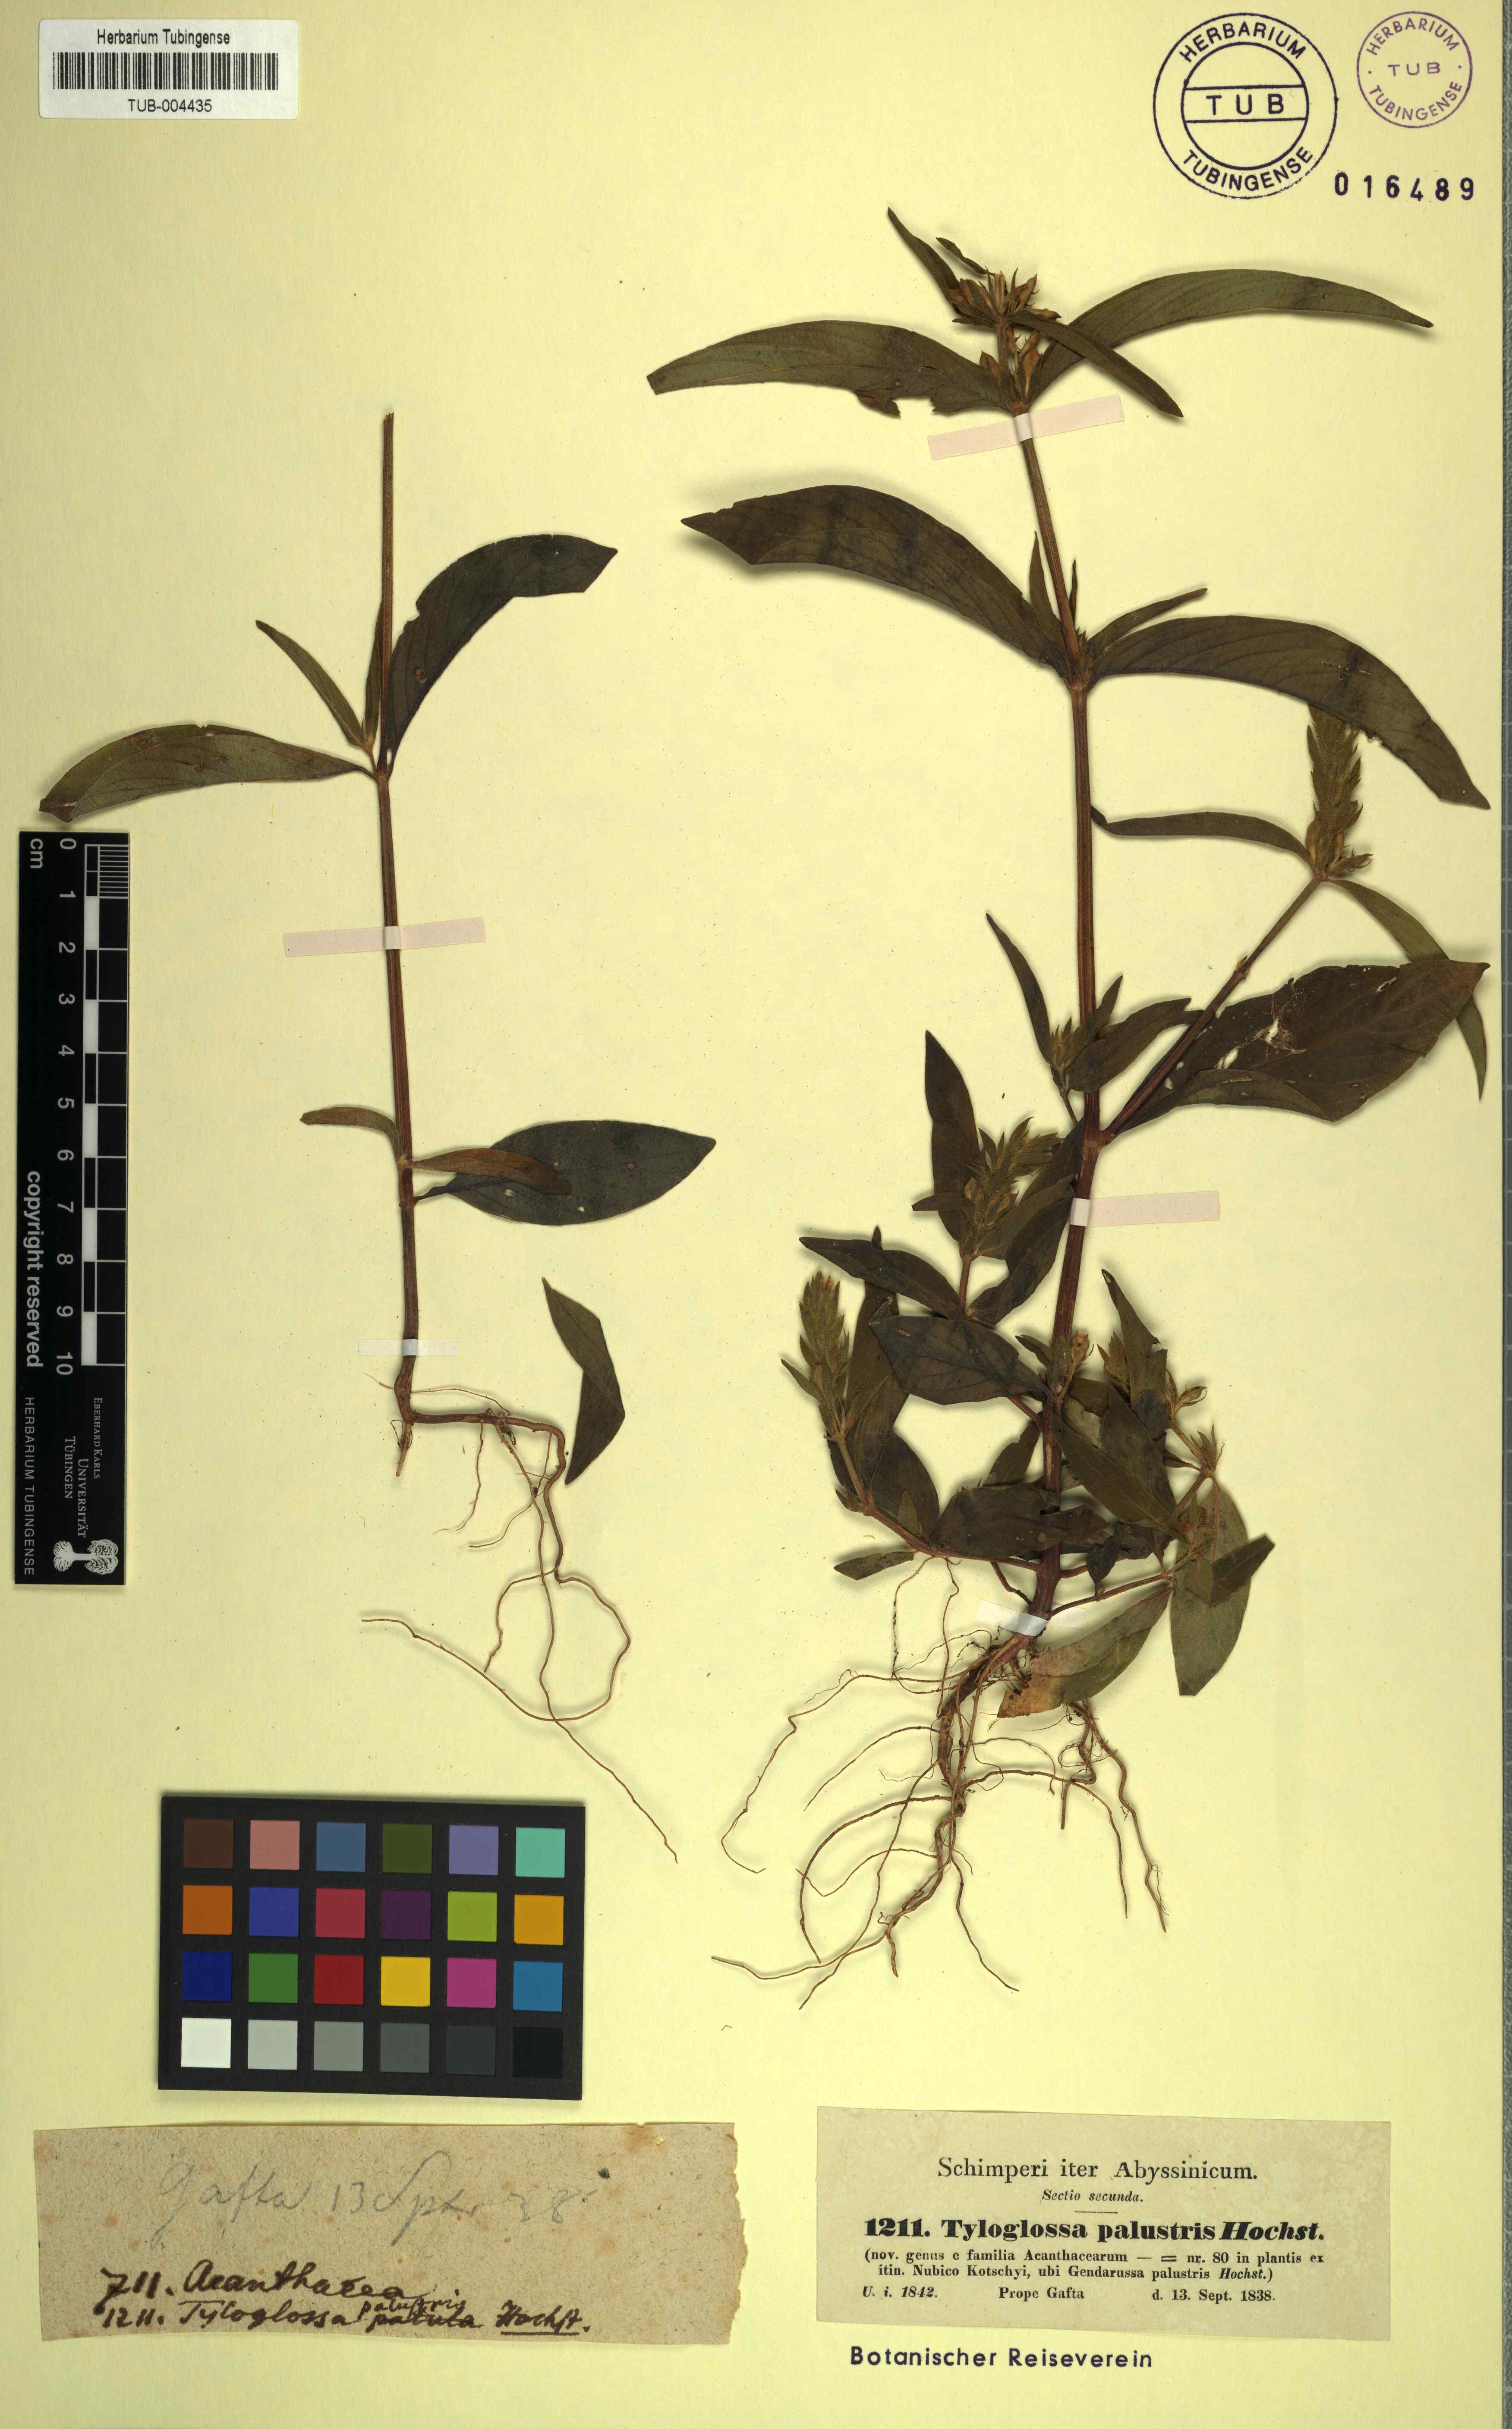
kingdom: Plantae
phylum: Tracheophyta
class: Magnoliopsida
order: Lamiales
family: Acanthaceae
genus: Justicia
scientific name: Justicia flava
